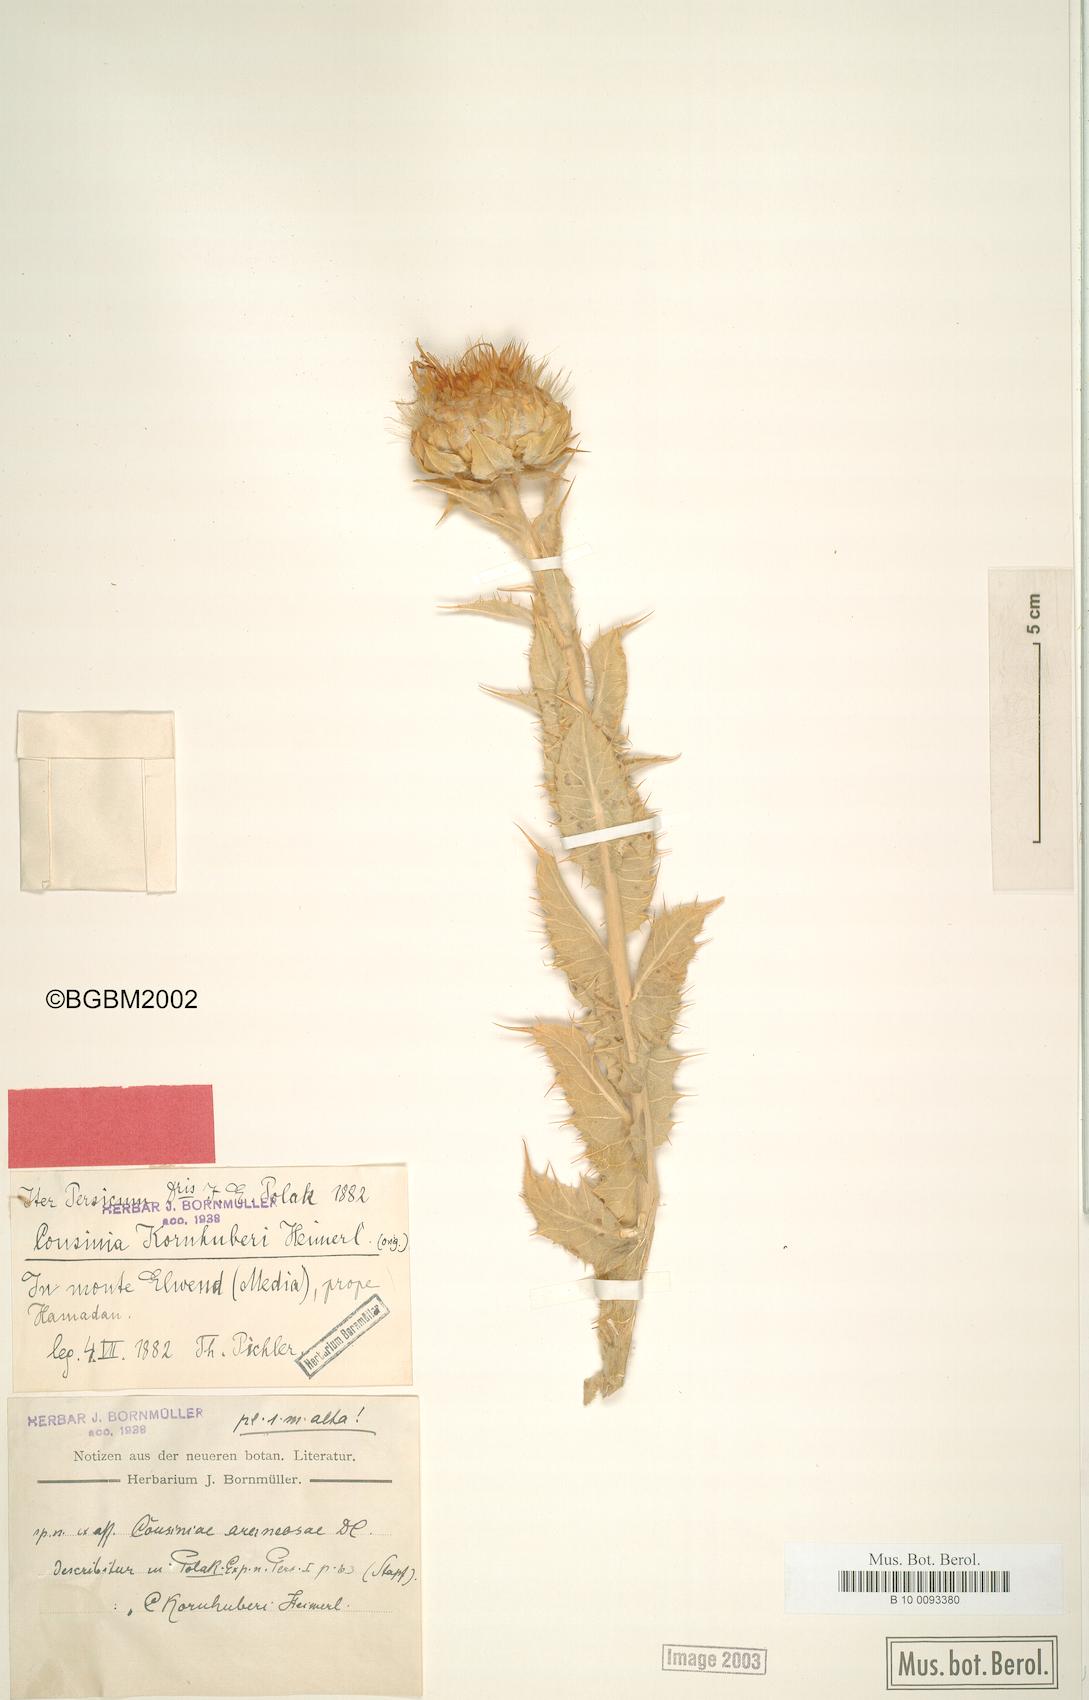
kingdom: Plantae
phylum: Tracheophyta
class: Magnoliopsida
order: Asterales
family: Asteraceae
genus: Cousinia
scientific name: Cousinia araneosa
